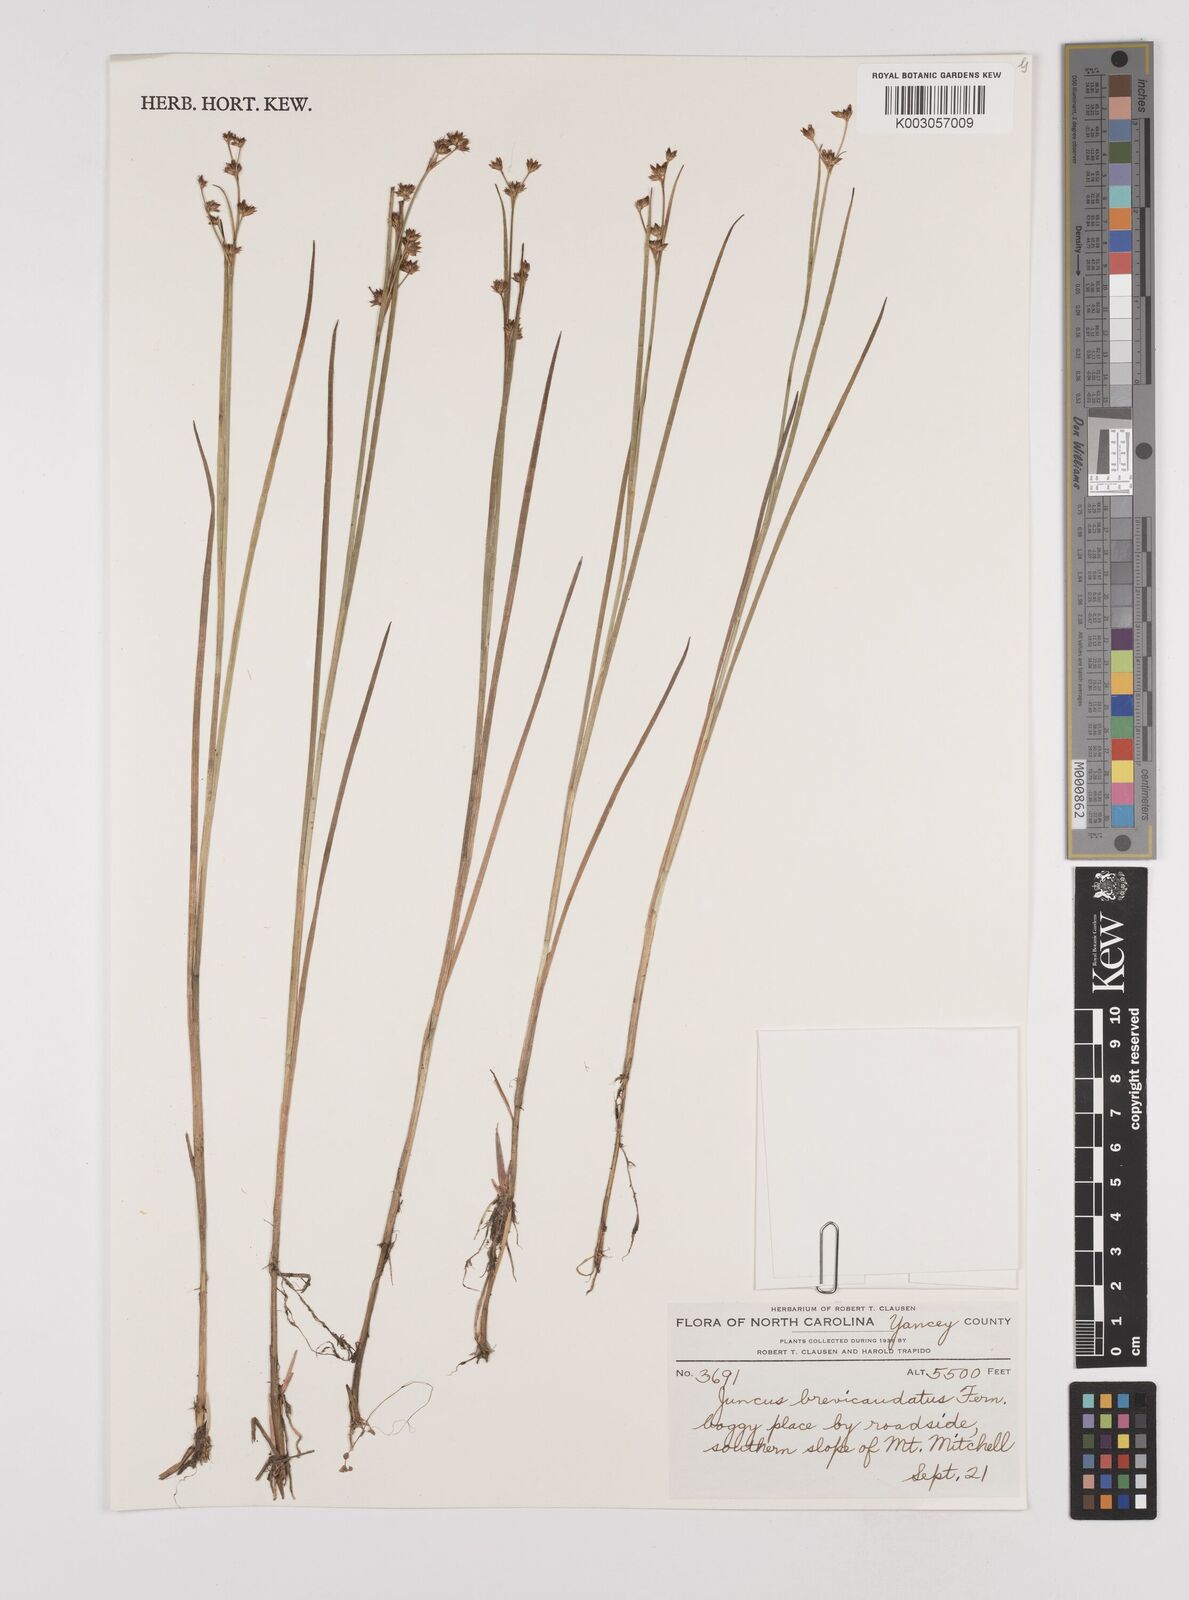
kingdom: Plantae
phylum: Tracheophyta
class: Liliopsida
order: Poales
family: Juncaceae
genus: Juncus
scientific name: Juncus brevicaudatus
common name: Narrow-panicle rush
